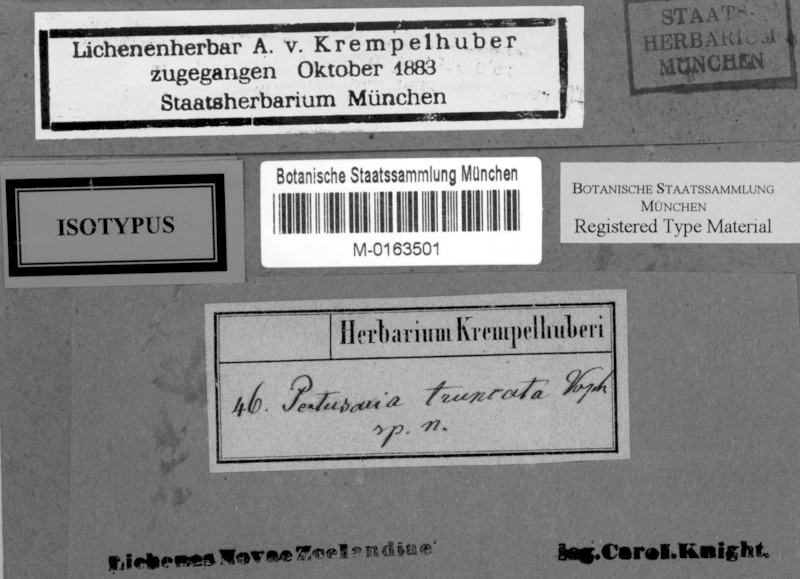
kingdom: Fungi
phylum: Ascomycota
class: Lecanoromycetes
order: Pertusariales
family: Pertusariaceae
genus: Lepra
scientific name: Lepra truncata
